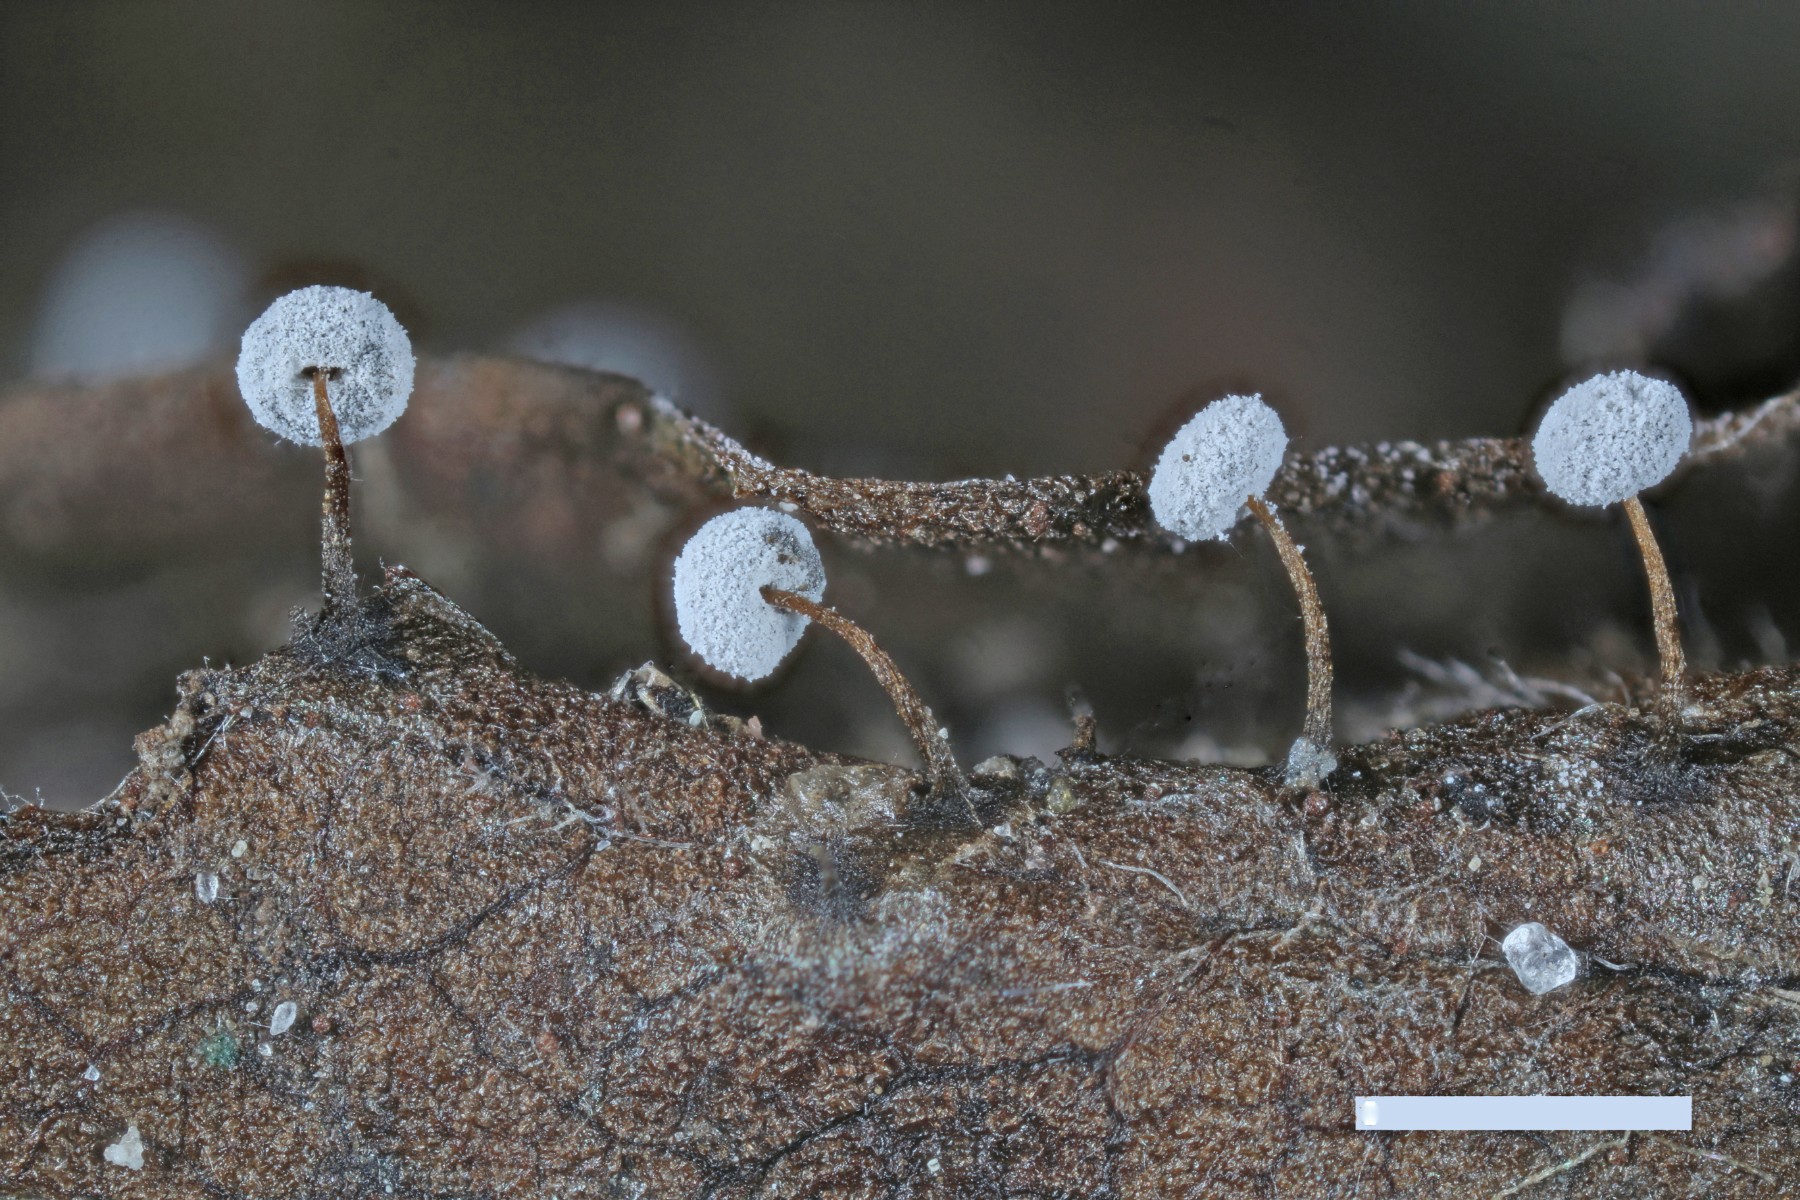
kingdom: Protozoa
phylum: Mycetozoa
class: Myxomycetes
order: Physarales
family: Didymiaceae
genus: Didymium
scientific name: Didymium bahiense
